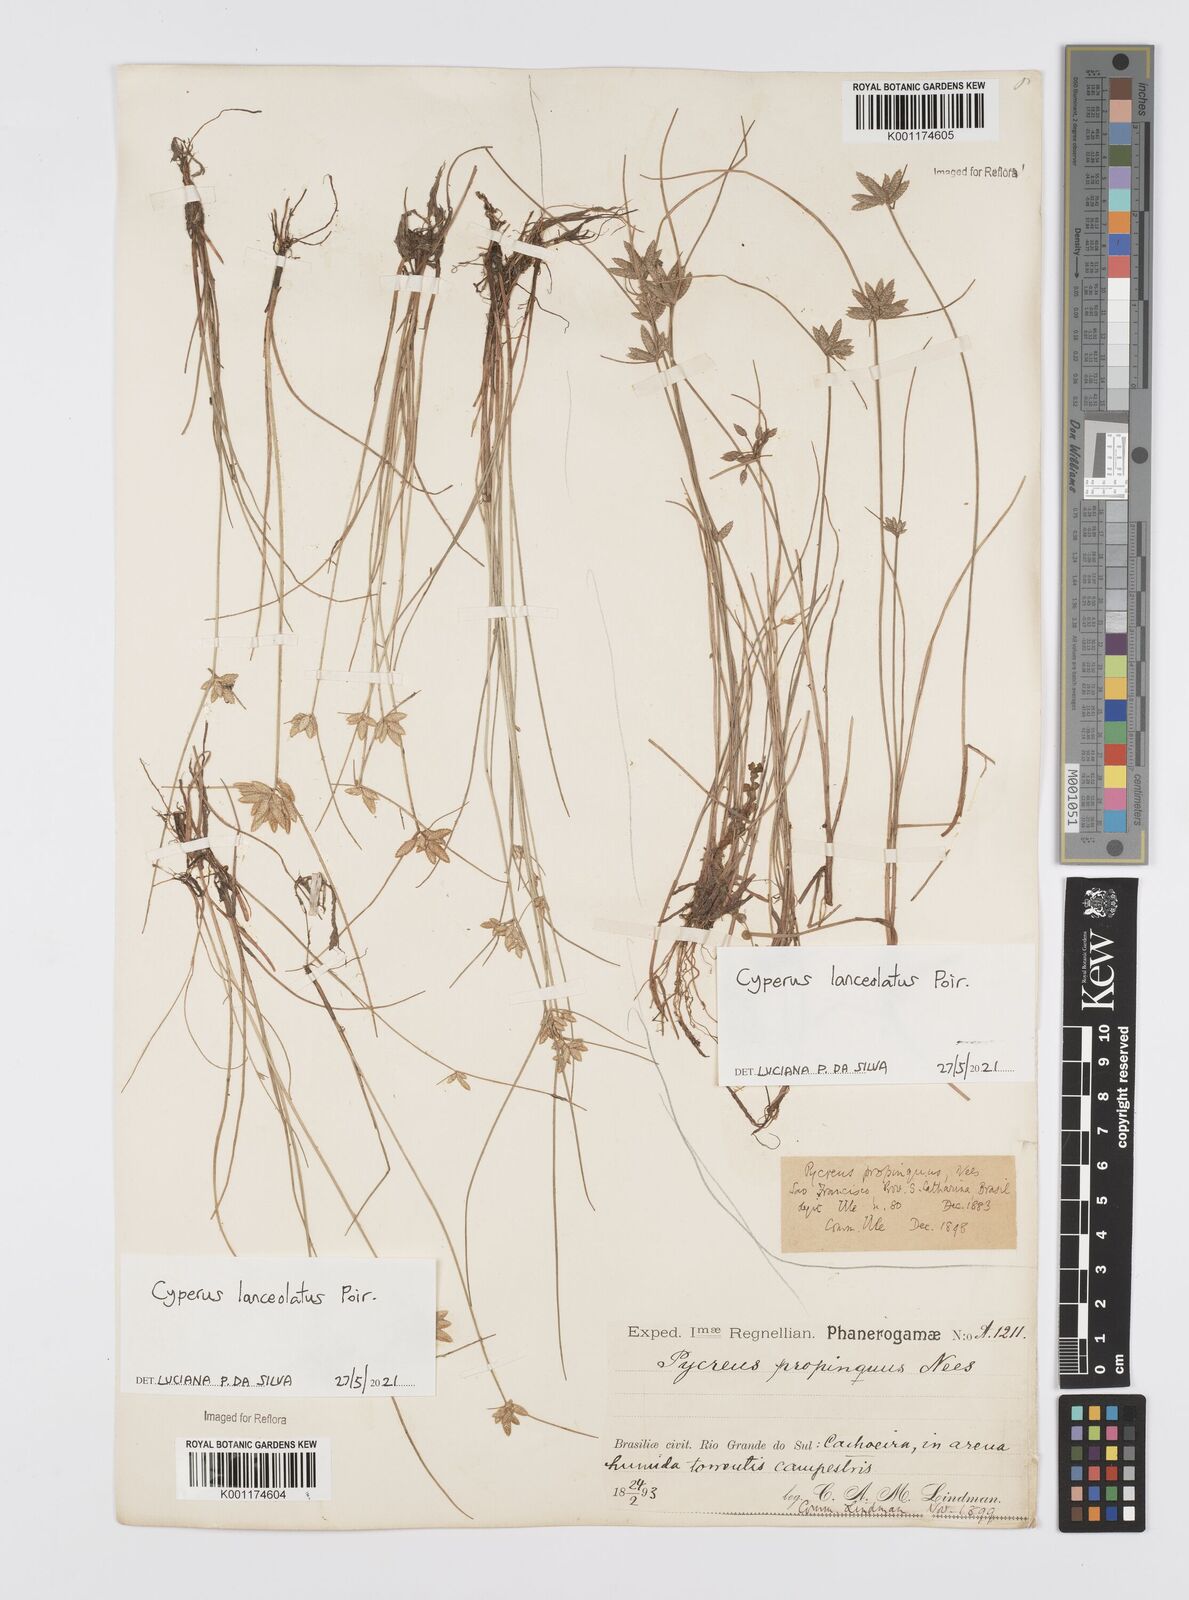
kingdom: Plantae
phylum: Tracheophyta
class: Liliopsida
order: Poales
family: Cyperaceae
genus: Cyperus
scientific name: Cyperus lanceolatus
